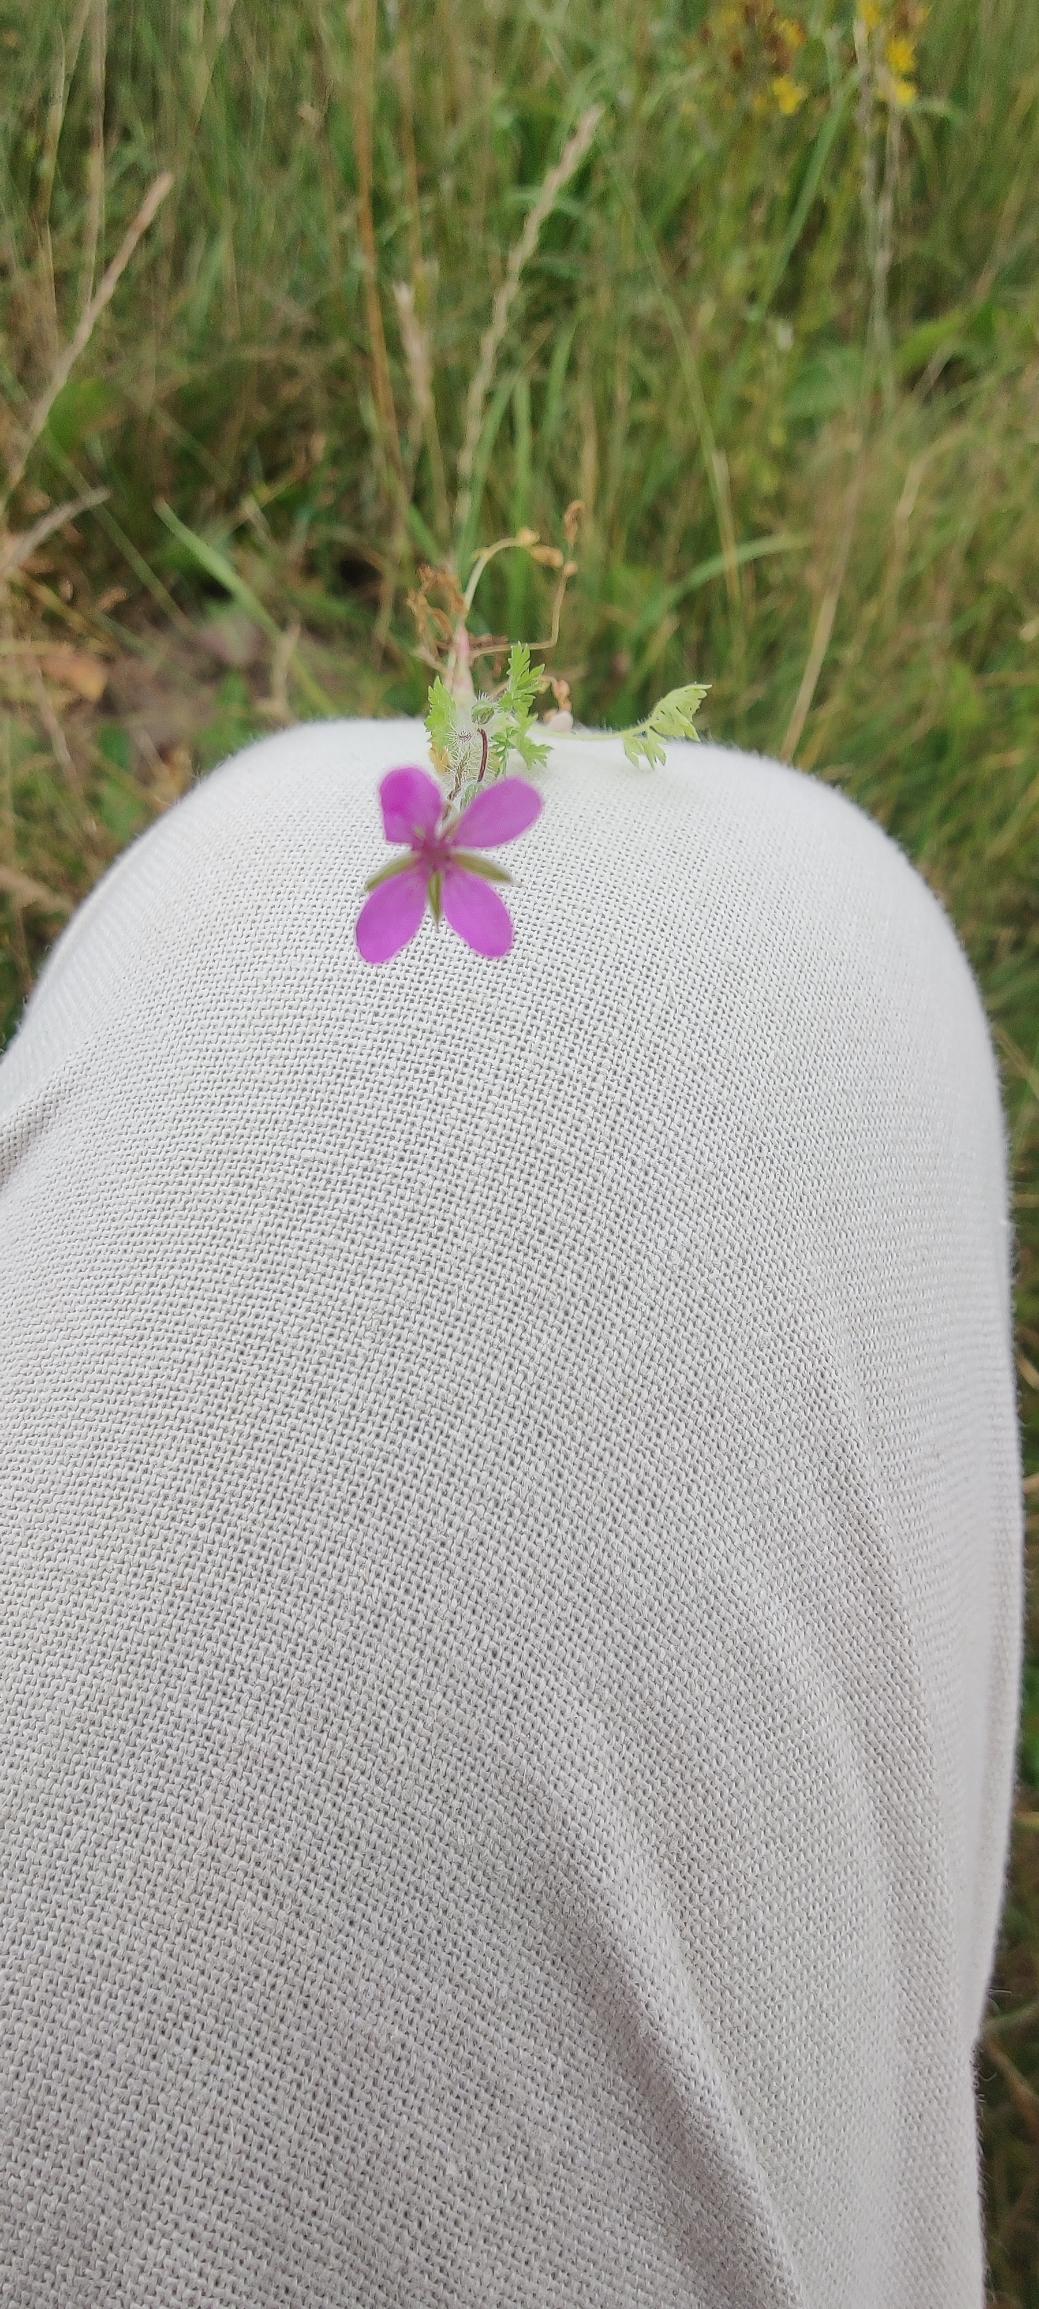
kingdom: Plantae
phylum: Tracheophyta
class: Magnoliopsida
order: Geraniales
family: Geraniaceae
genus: Erodium
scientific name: Erodium cicutarium
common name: Hejrenæb
